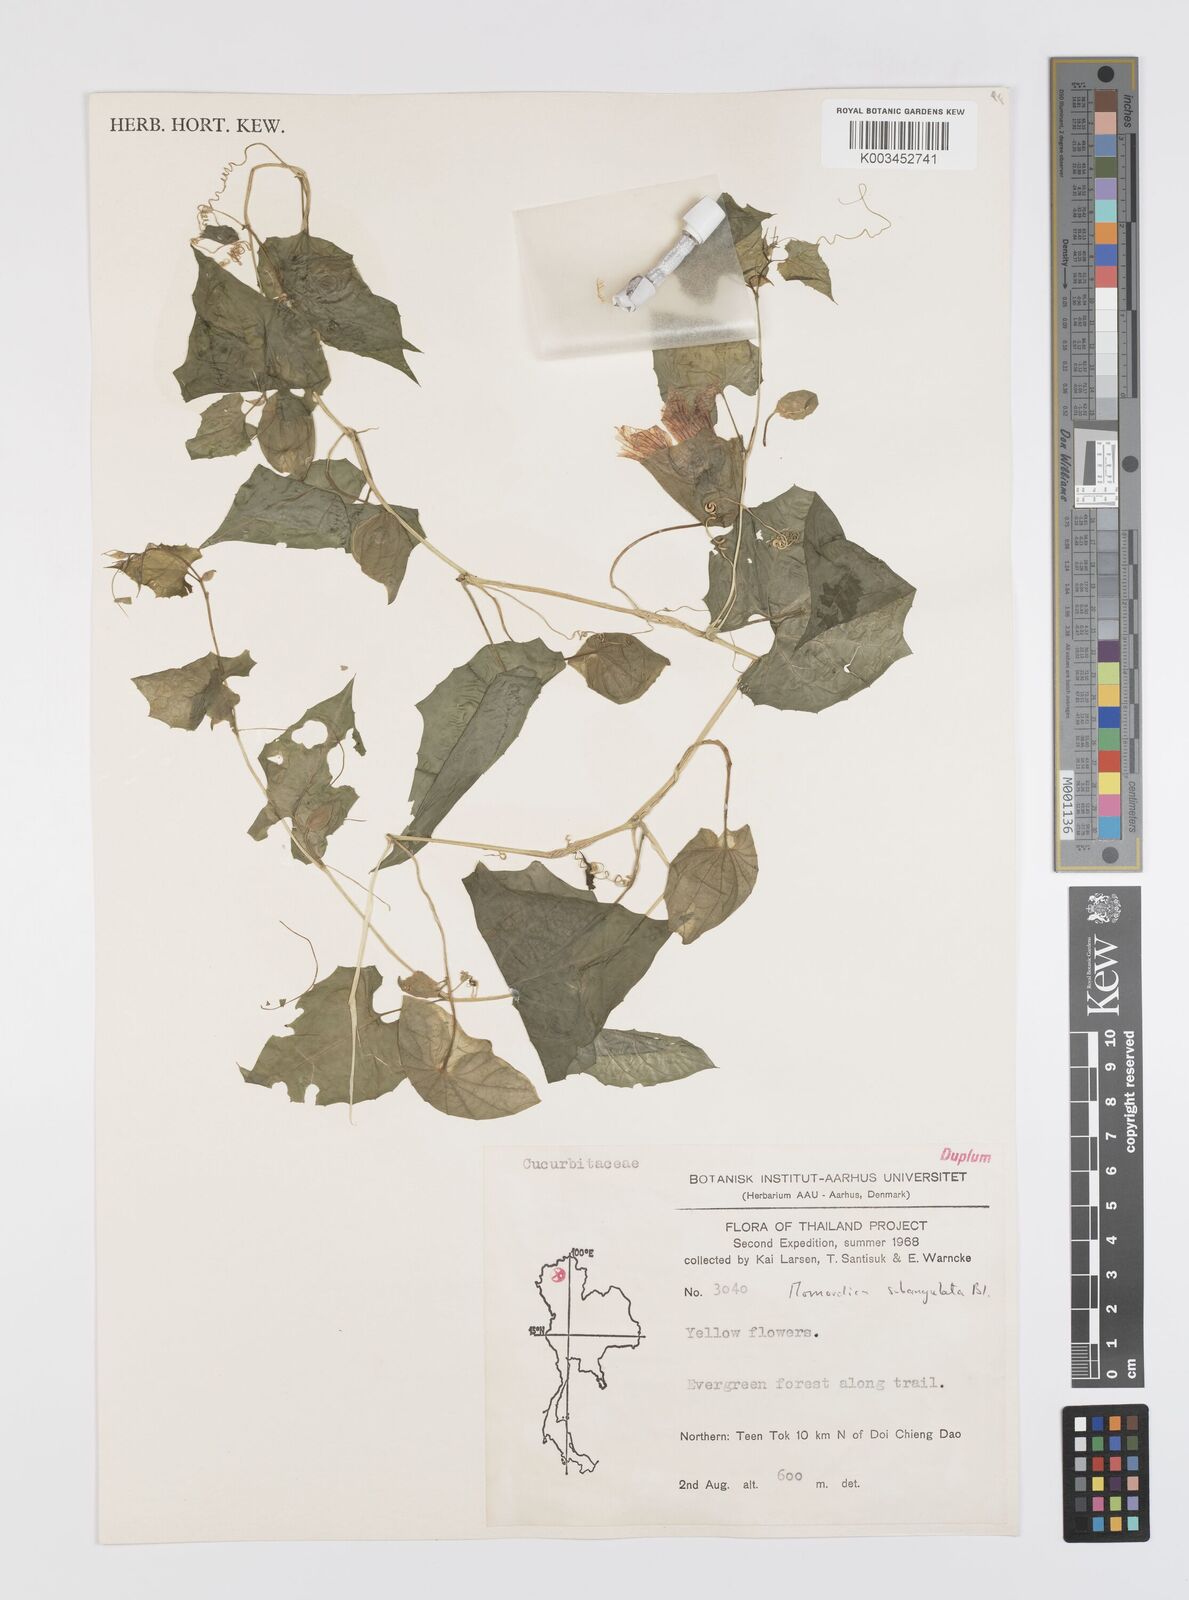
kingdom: Plantae
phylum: Tracheophyta
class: Magnoliopsida
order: Cucurbitales
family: Cucurbitaceae
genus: Momordica
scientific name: Momordica subangulata
